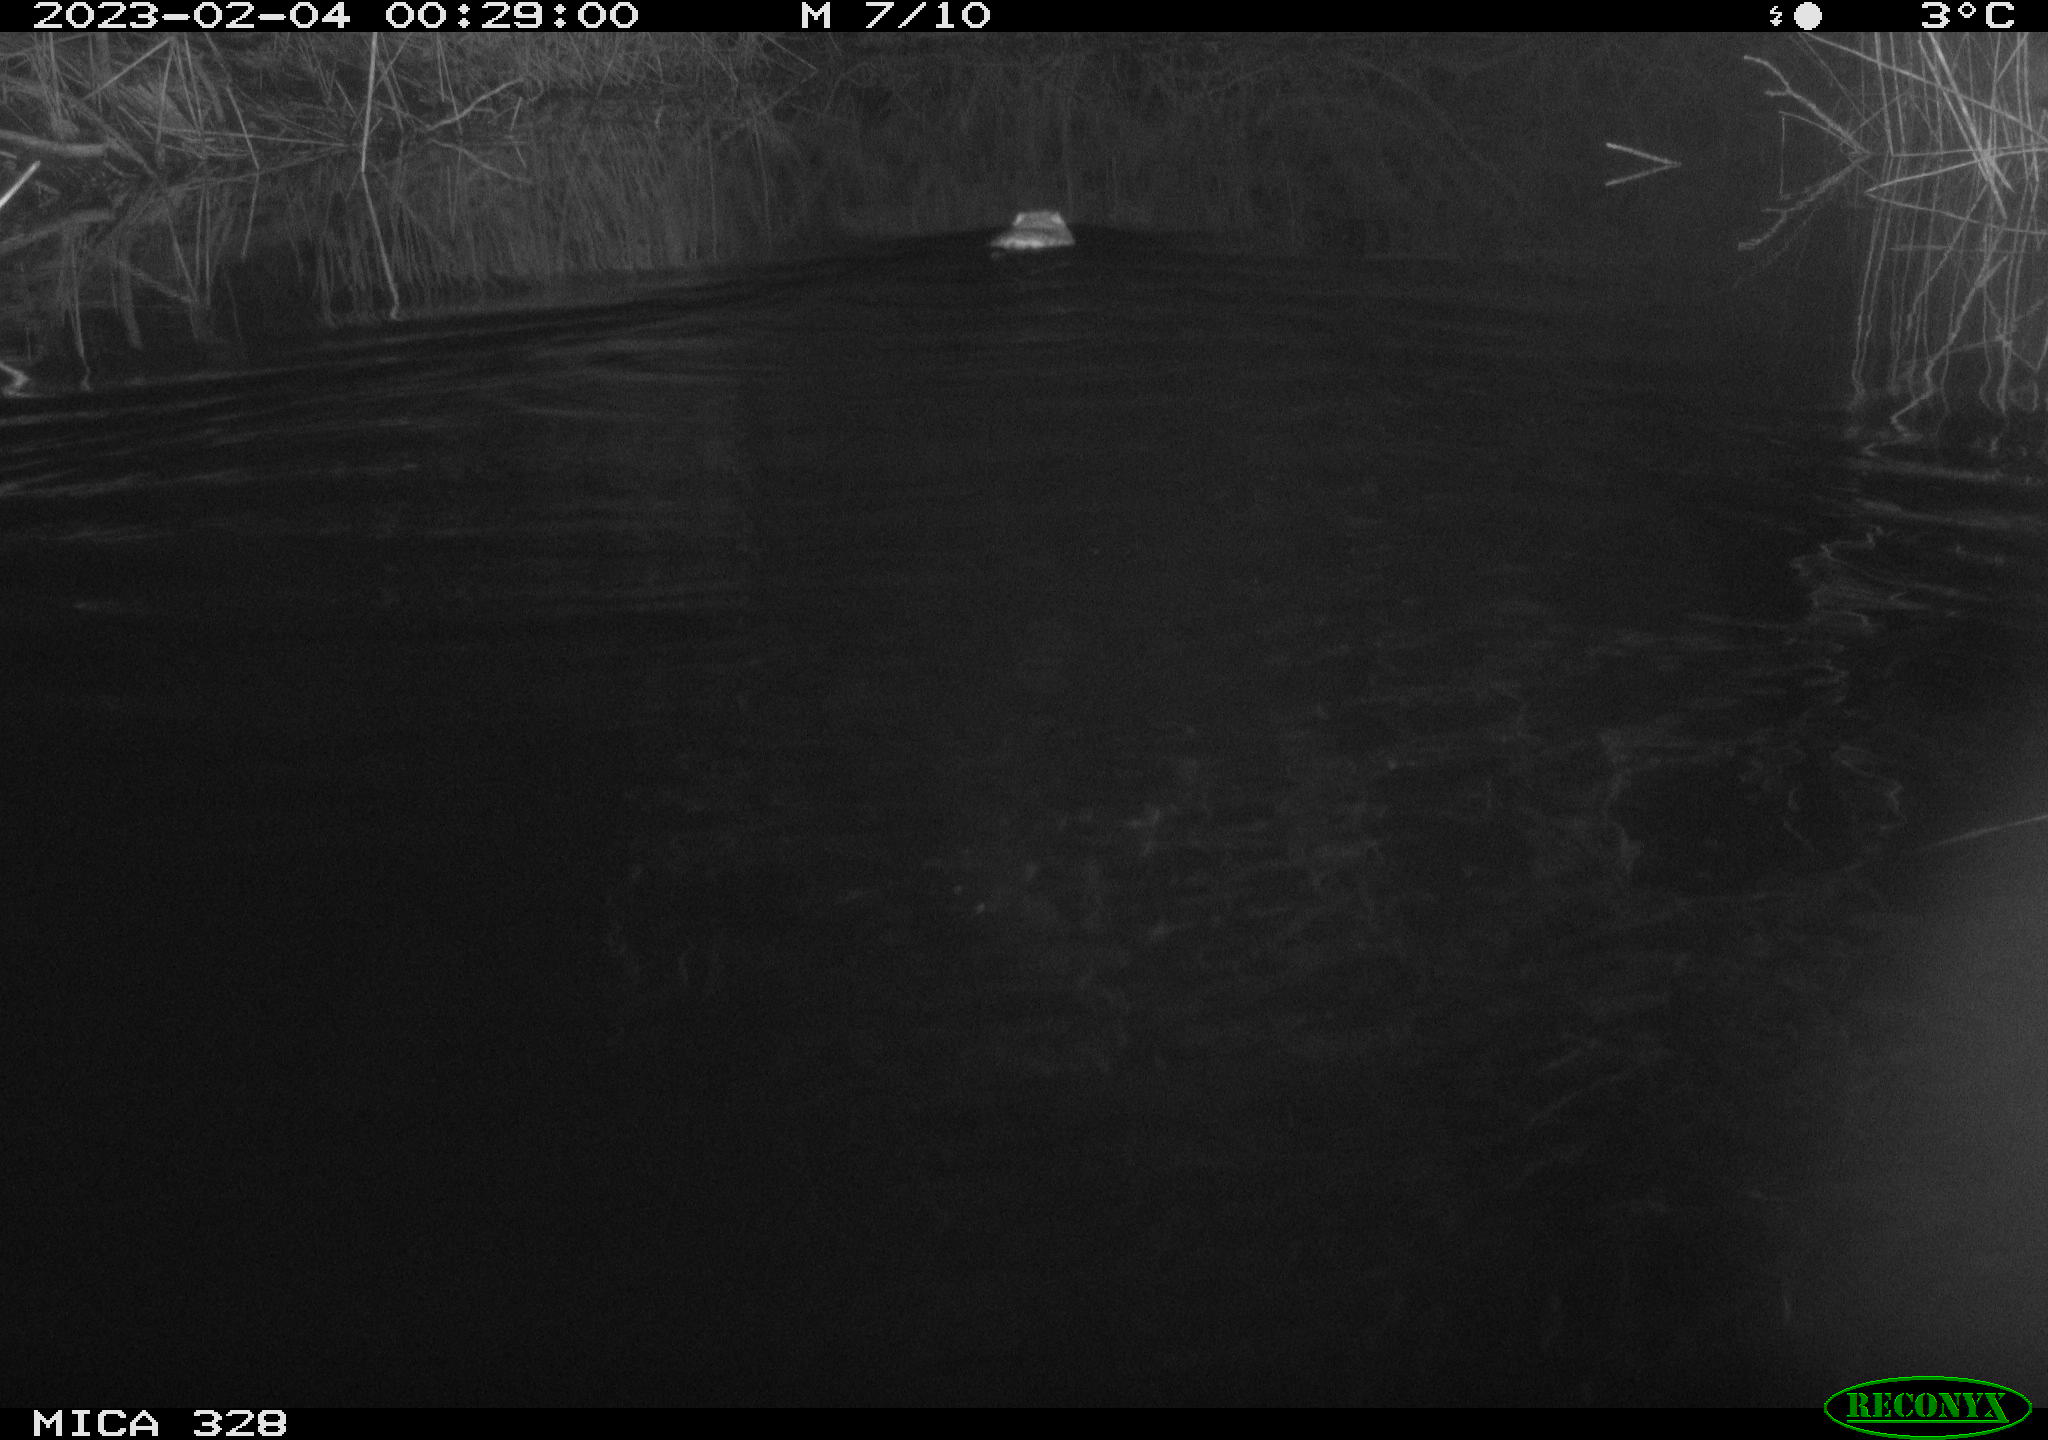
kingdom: Animalia
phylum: Chordata
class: Mammalia
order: Rodentia
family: Cricetidae
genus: Ondatra
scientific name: Ondatra zibethicus
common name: Muskrat
